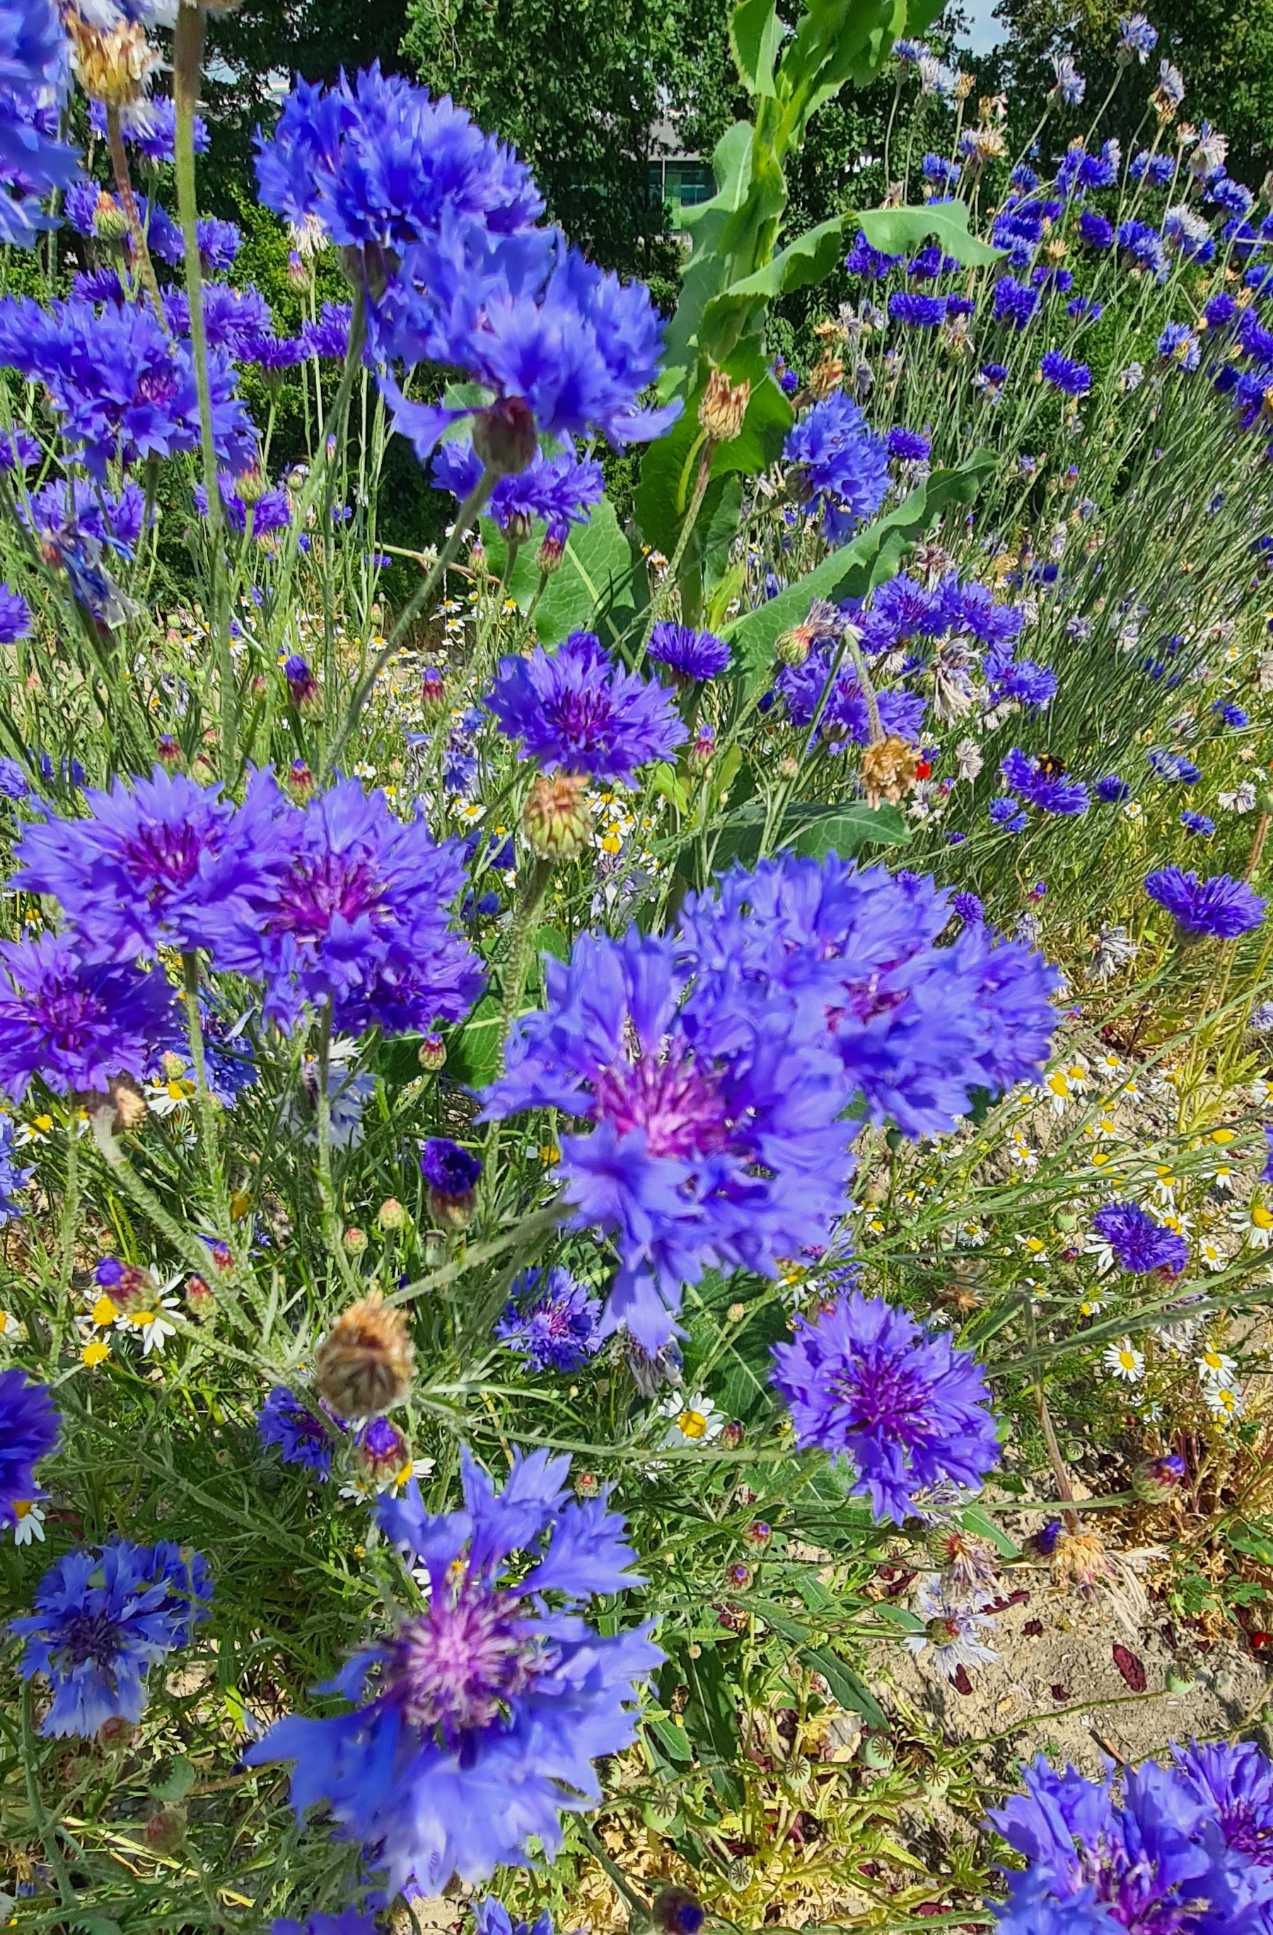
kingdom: Plantae
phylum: Tracheophyta
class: Magnoliopsida
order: Asterales
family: Asteraceae
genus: Centaurea
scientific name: Centaurea cyanus
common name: Kornblomst
